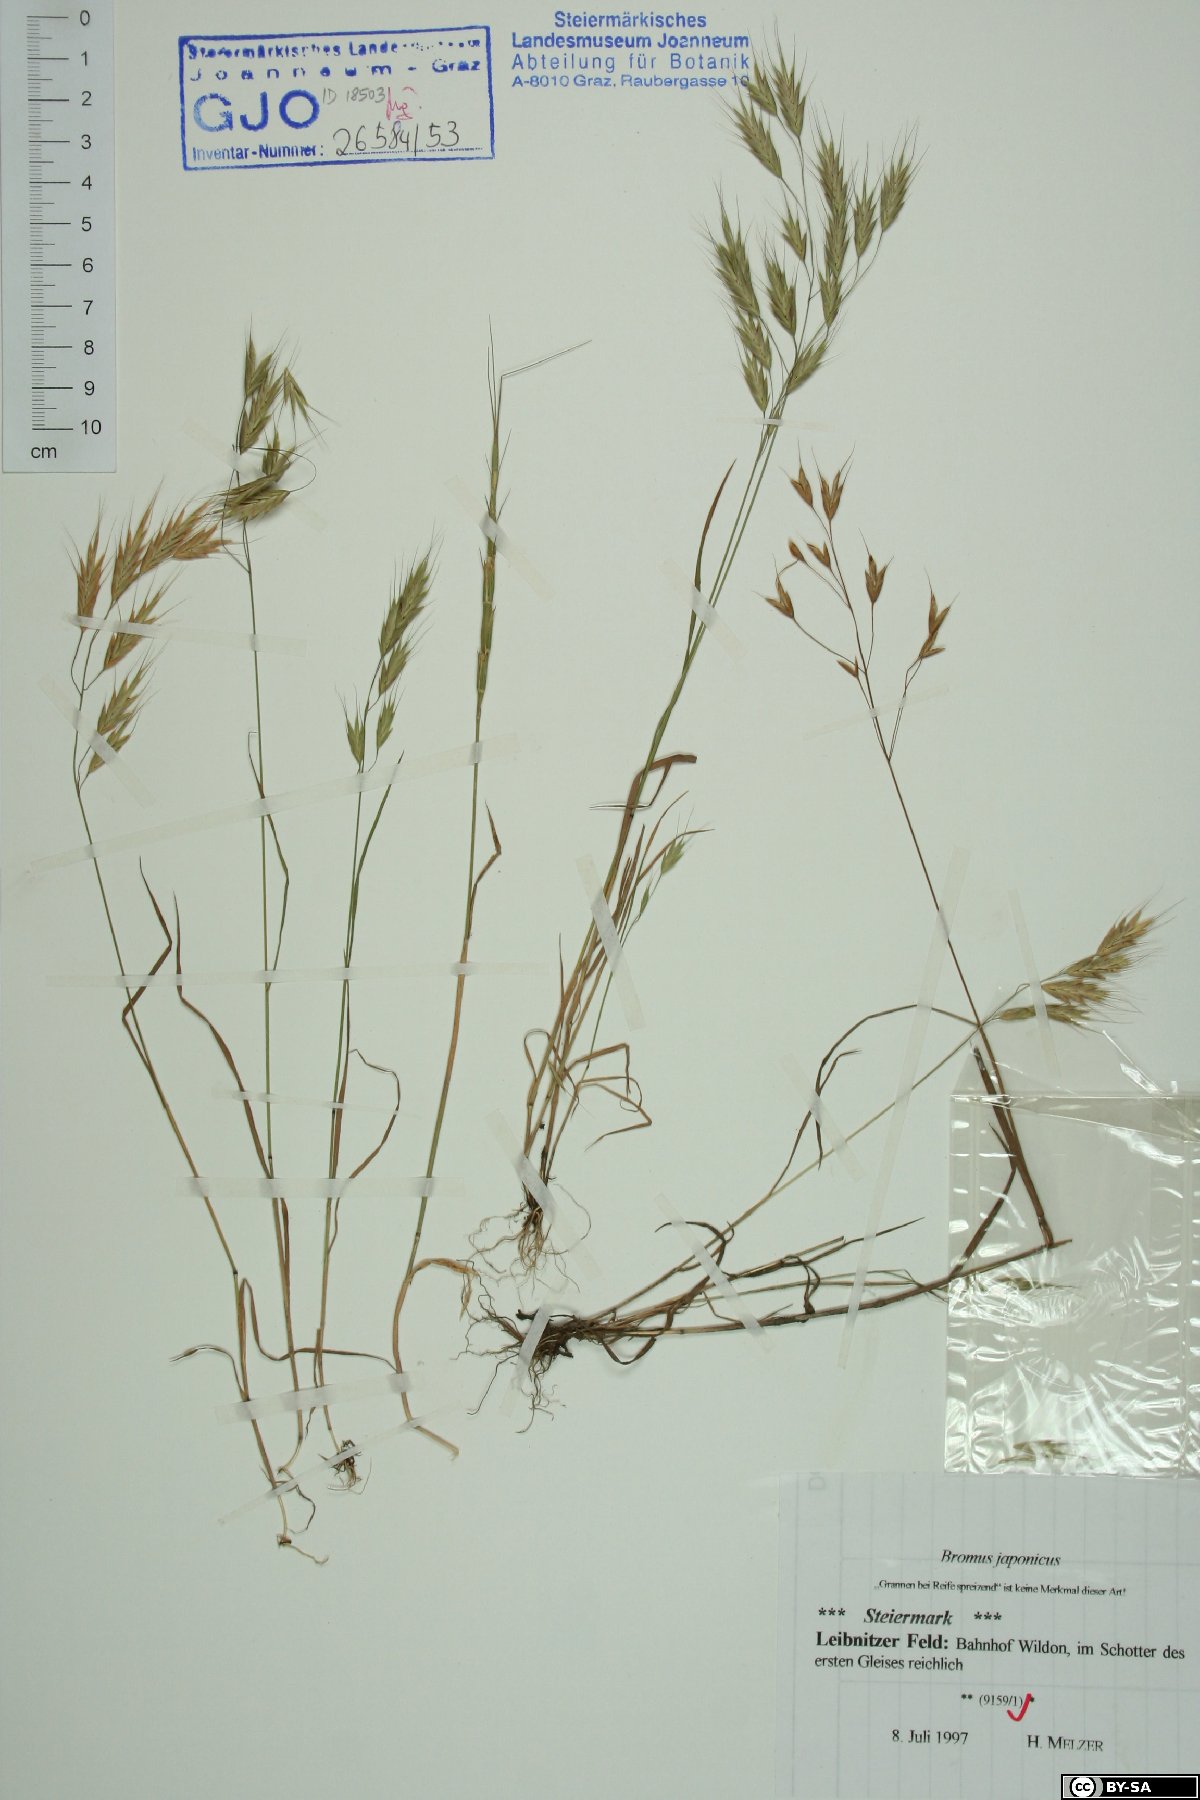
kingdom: Plantae
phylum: Tracheophyta
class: Liliopsida
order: Poales
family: Poaceae
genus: Bromus
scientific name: Bromus japonicus
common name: Japanese brome
